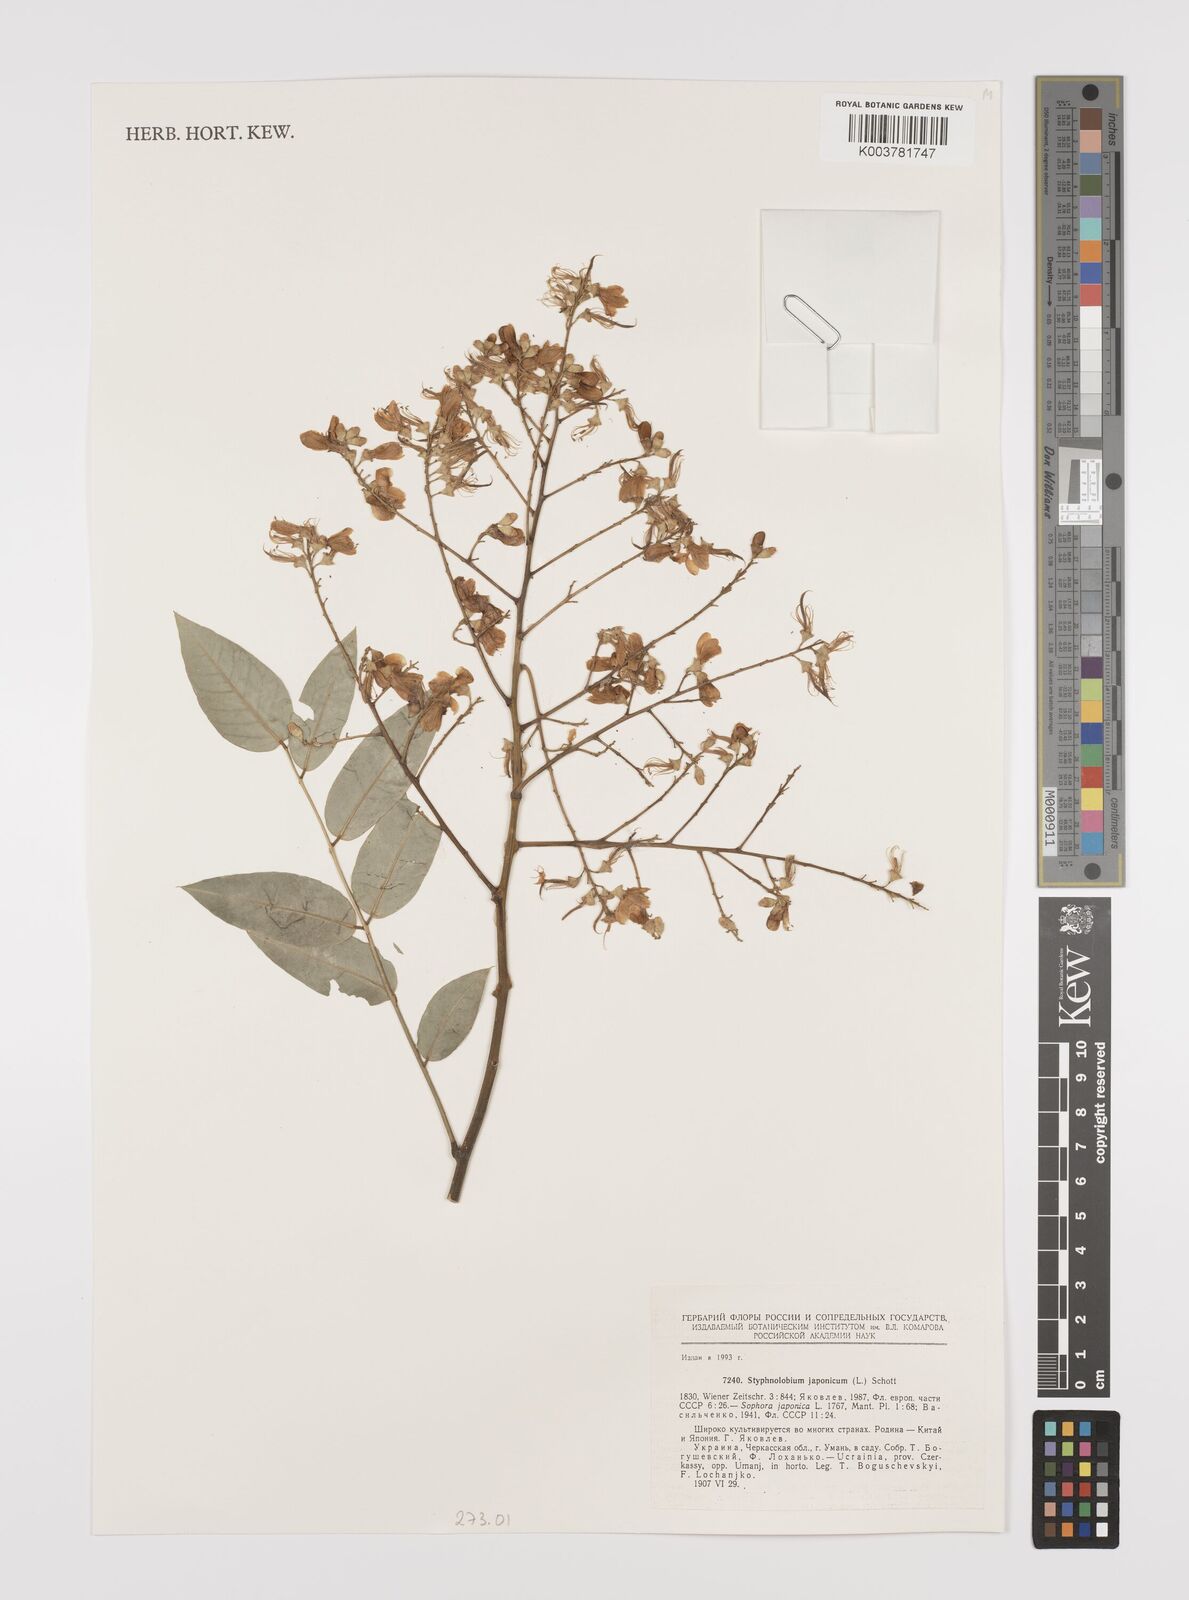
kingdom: Plantae
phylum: Tracheophyta
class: Magnoliopsida
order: Fabales
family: Fabaceae
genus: Styphnolobium
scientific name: Styphnolobium japonicum
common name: Chinese scholartree
